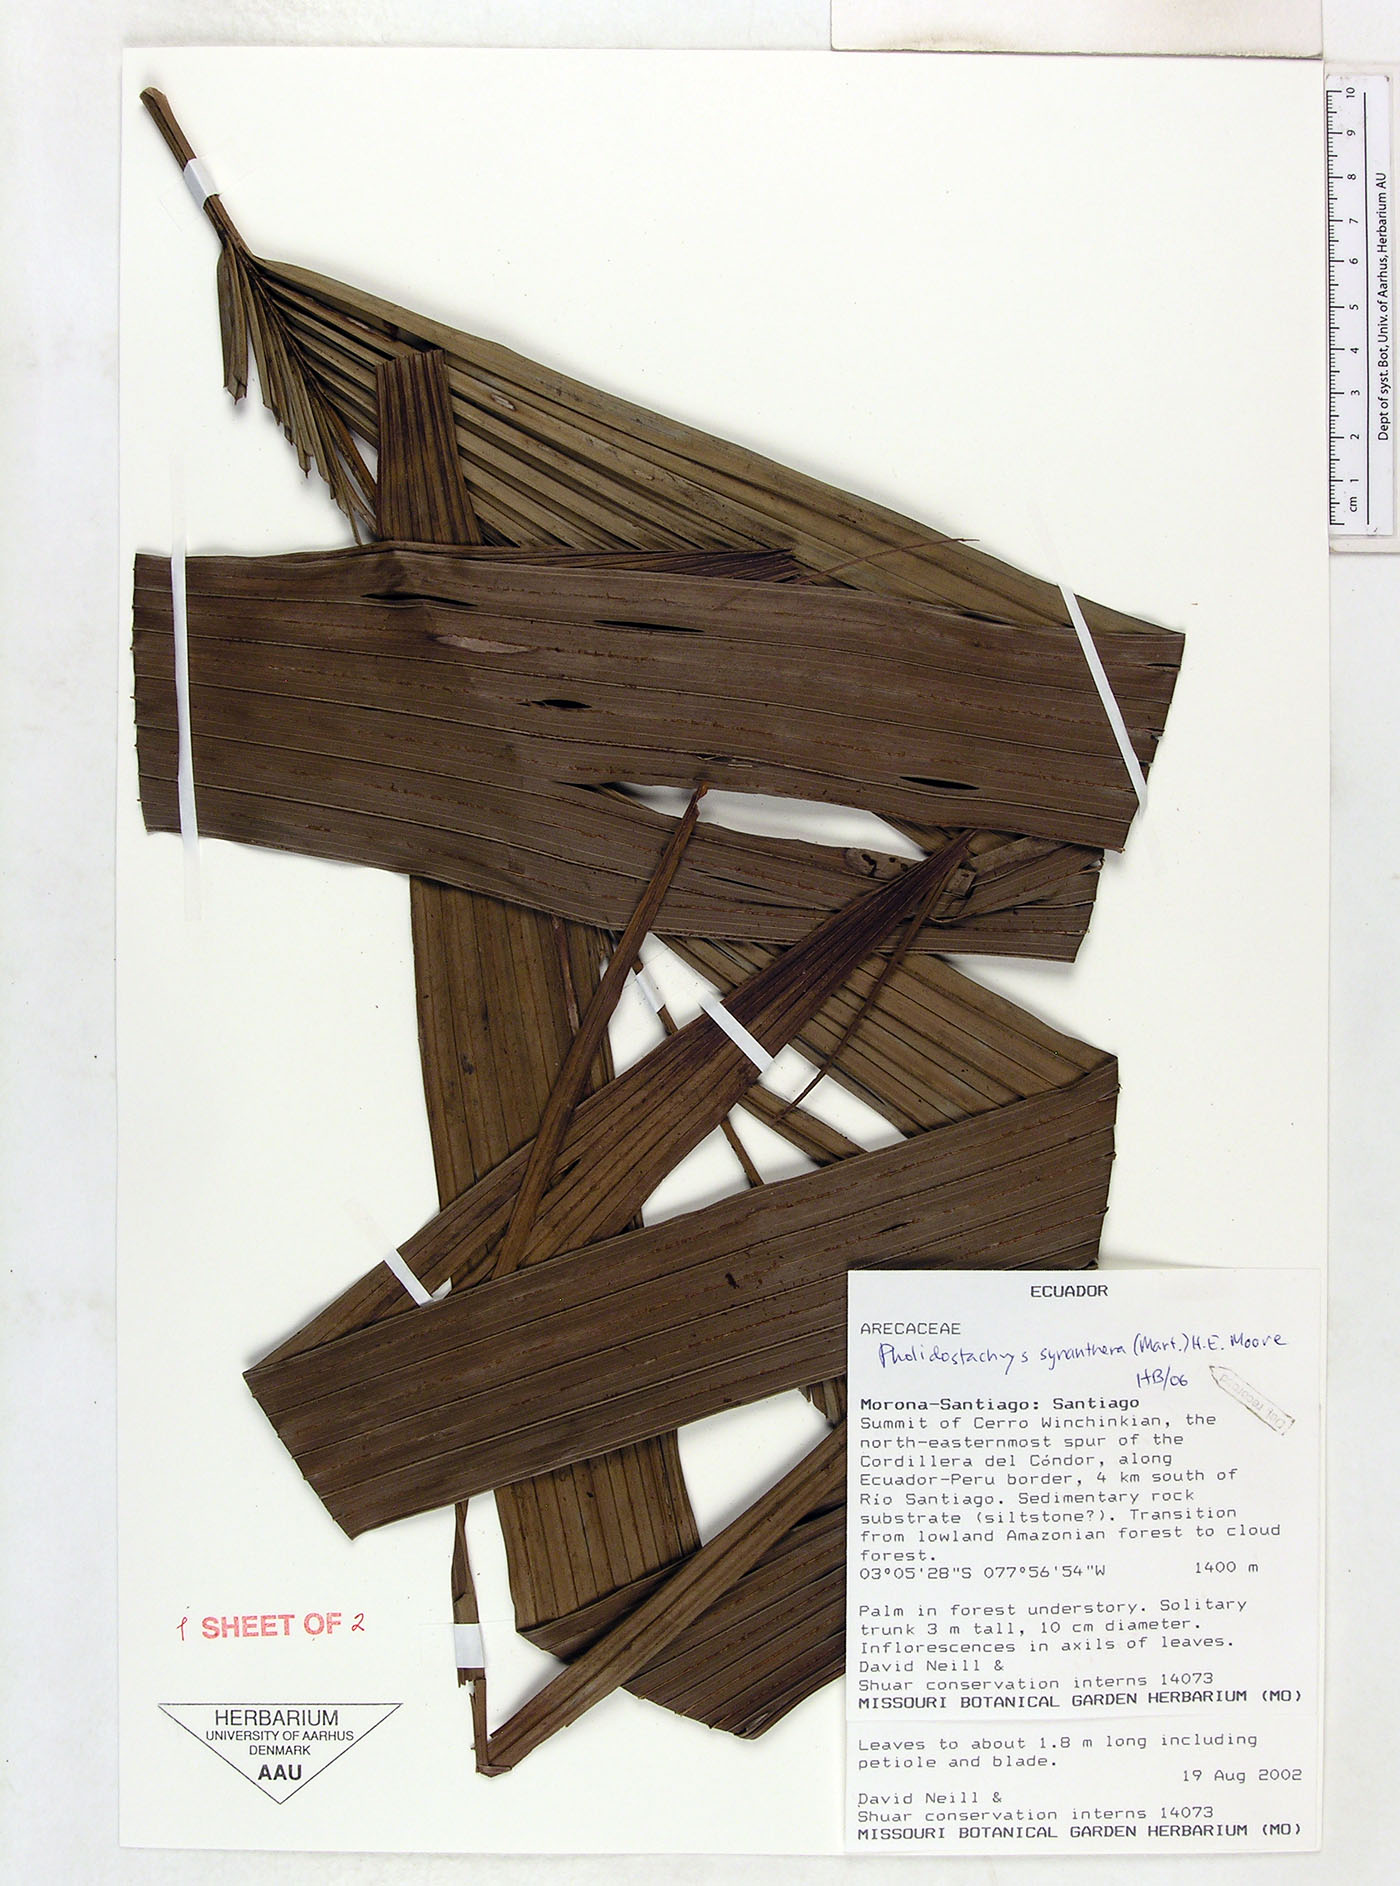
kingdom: Plantae
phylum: Tracheophyta
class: Liliopsida
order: Arecales
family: Arecaceae
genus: Pholidostachys
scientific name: Pholidostachys synanthera
